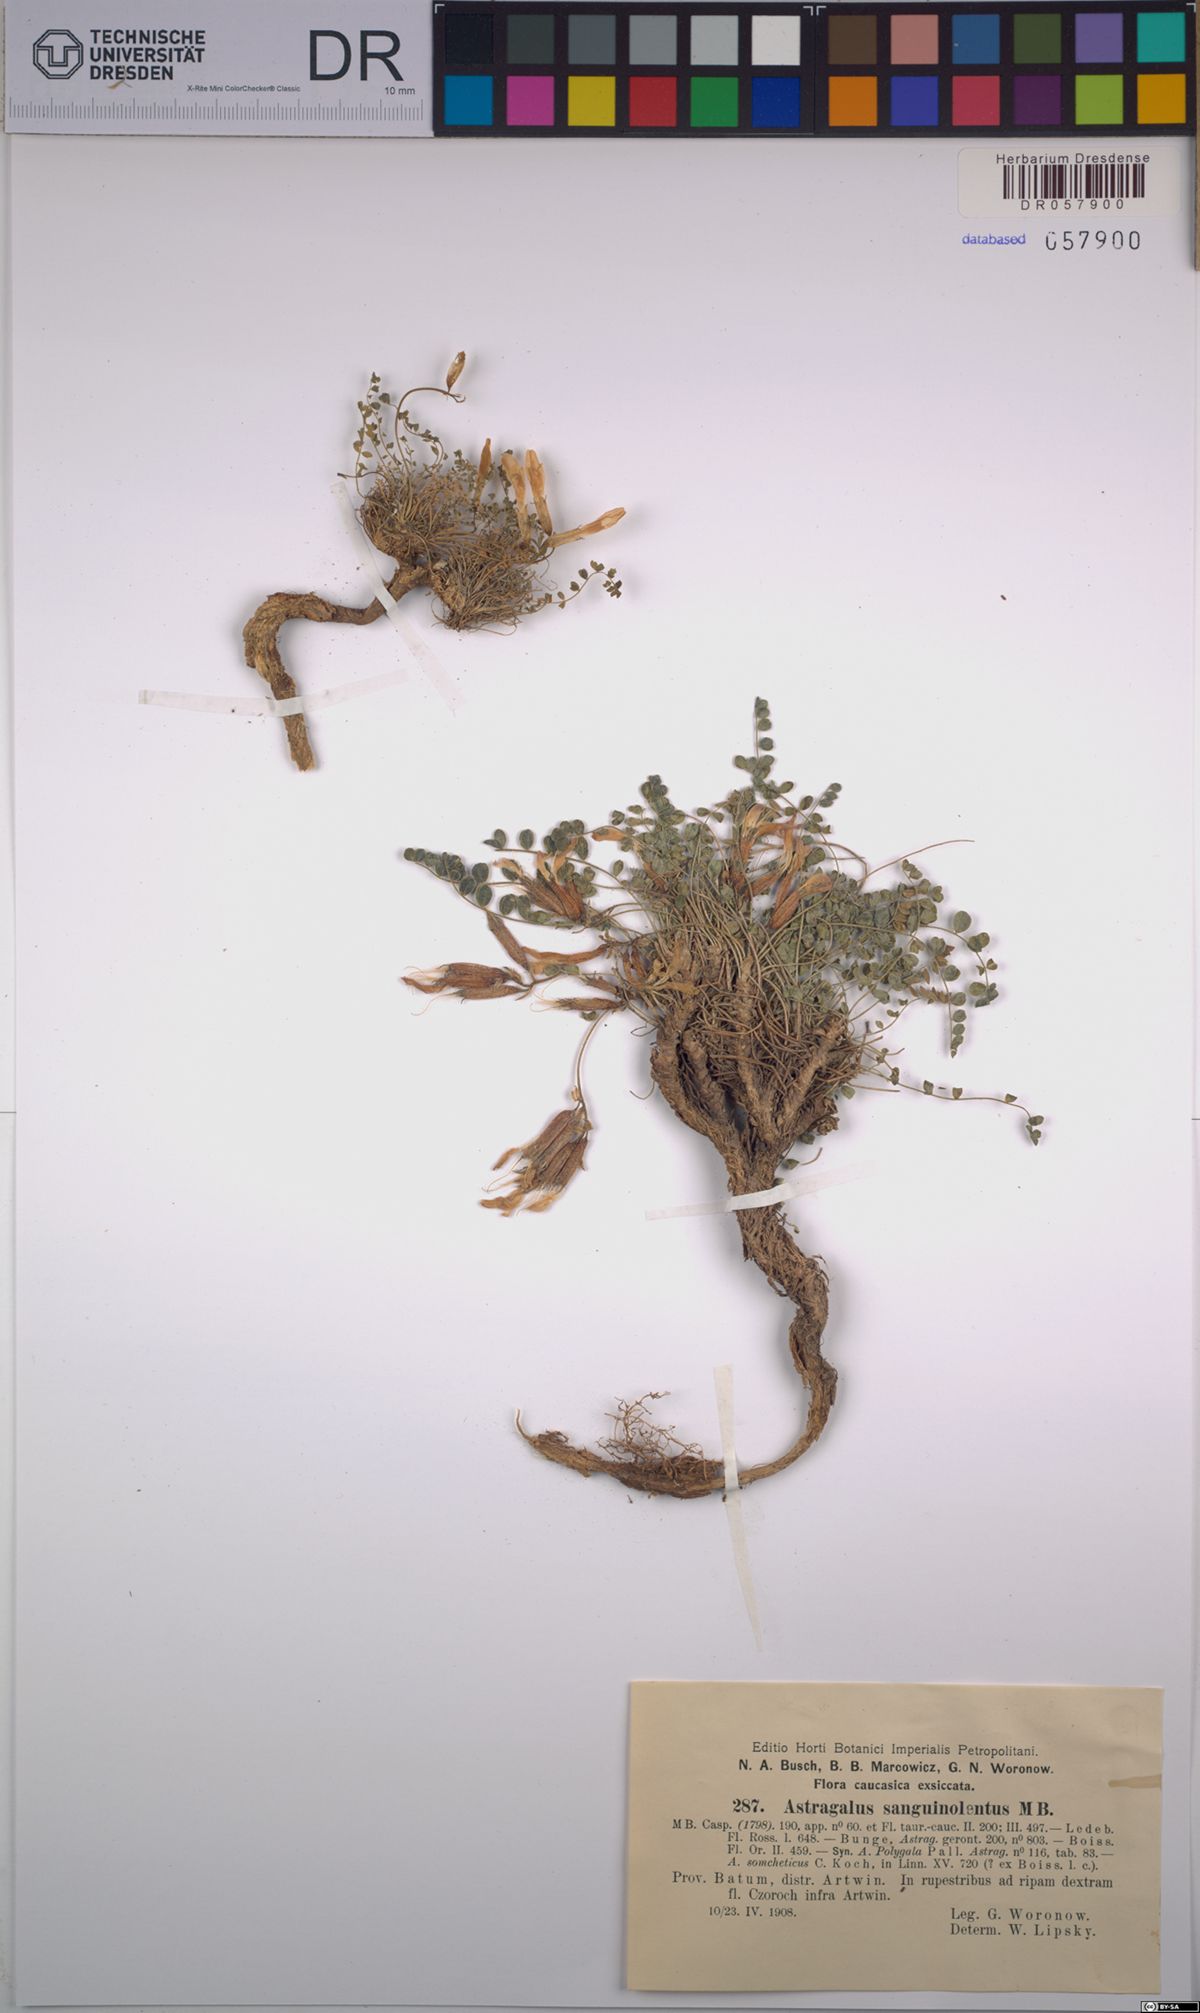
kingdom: Plantae
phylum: Tracheophyta
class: Magnoliopsida
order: Fabales
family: Fabaceae
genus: Astragalus
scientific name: Astragalus sanguinolentus
